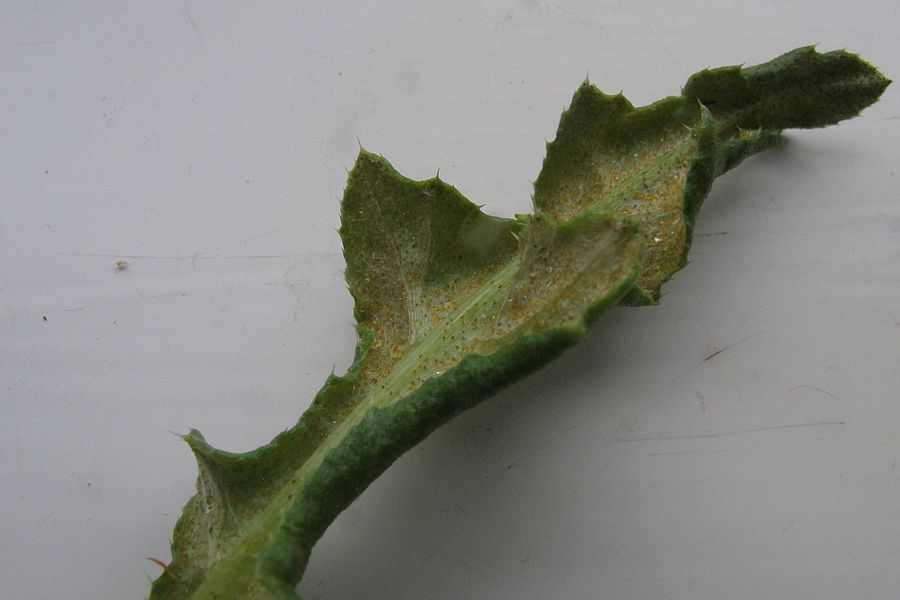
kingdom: Fungi
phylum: Basidiomycota
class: Pucciniomycetes
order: Pucciniales
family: Pucciniaceae
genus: Puccinia
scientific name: Puccinia suaveolens
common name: tidsel-tvecellerust
